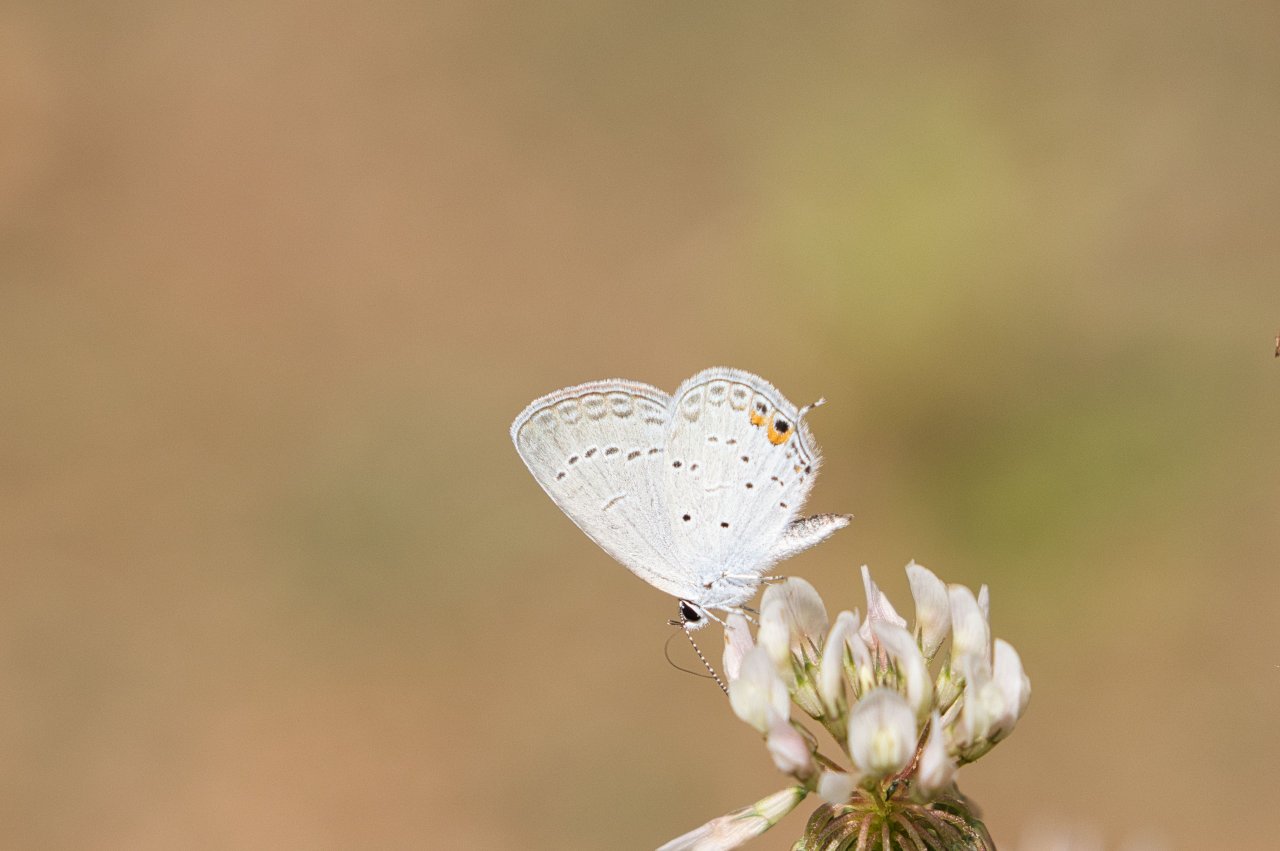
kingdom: Animalia
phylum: Arthropoda
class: Insecta
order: Lepidoptera
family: Lycaenidae
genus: Elkalyce
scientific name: Elkalyce comyntas
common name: Eastern Tailed-Blue
